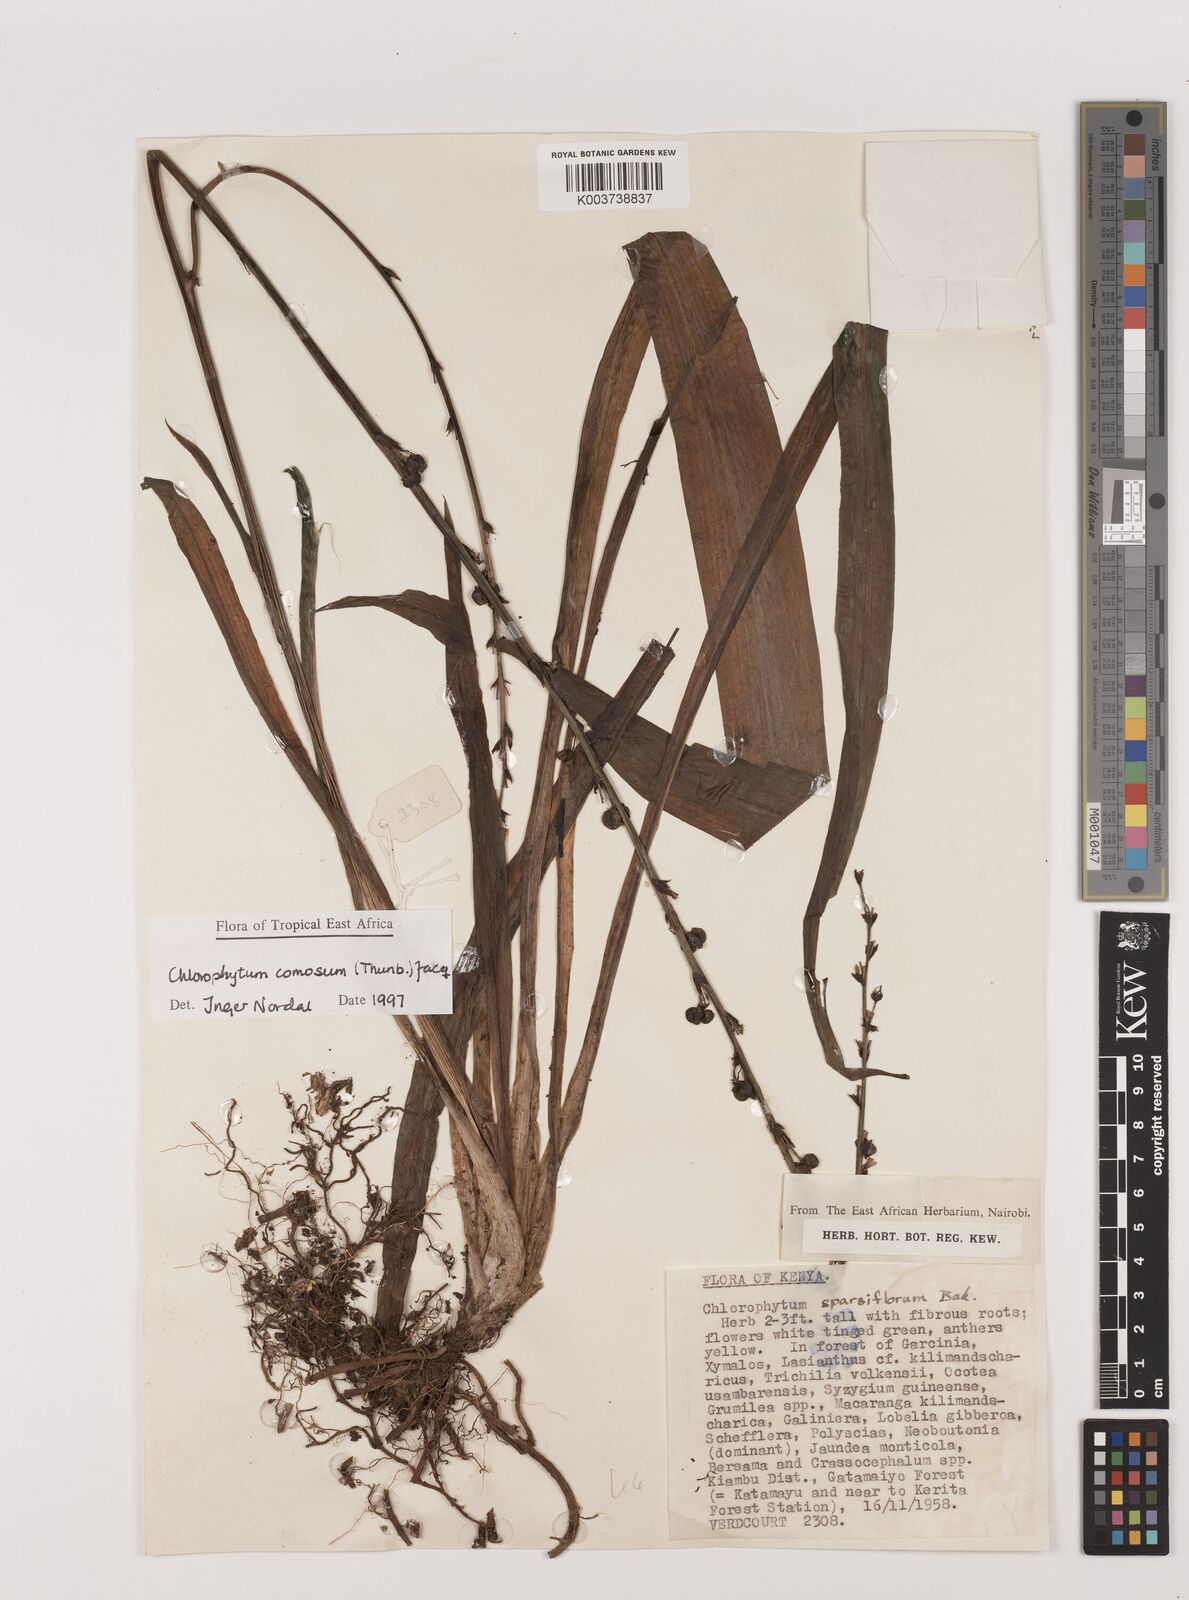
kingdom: Plantae
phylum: Tracheophyta
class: Liliopsida
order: Asparagales
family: Asparagaceae
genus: Chlorophytum
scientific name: Chlorophytum comosum
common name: Spider plant
